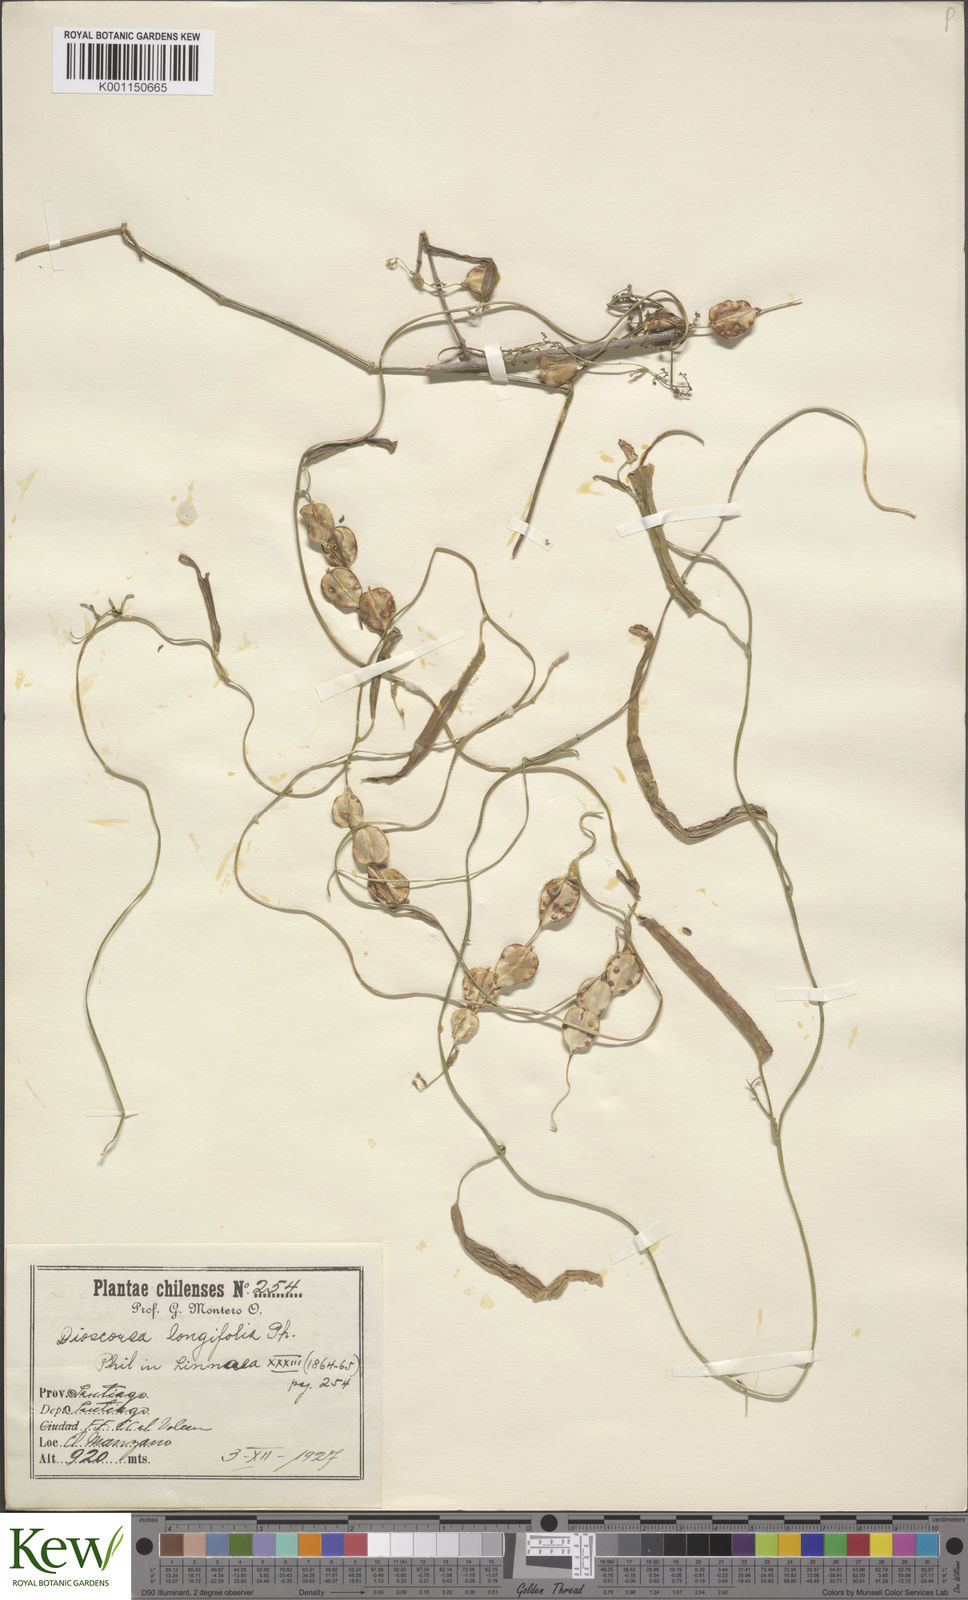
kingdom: Plantae
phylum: Tracheophyta
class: Liliopsida
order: Dioscoreales
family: Dioscoreaceae
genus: Dioscorea
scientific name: Dioscorea saxatilis
